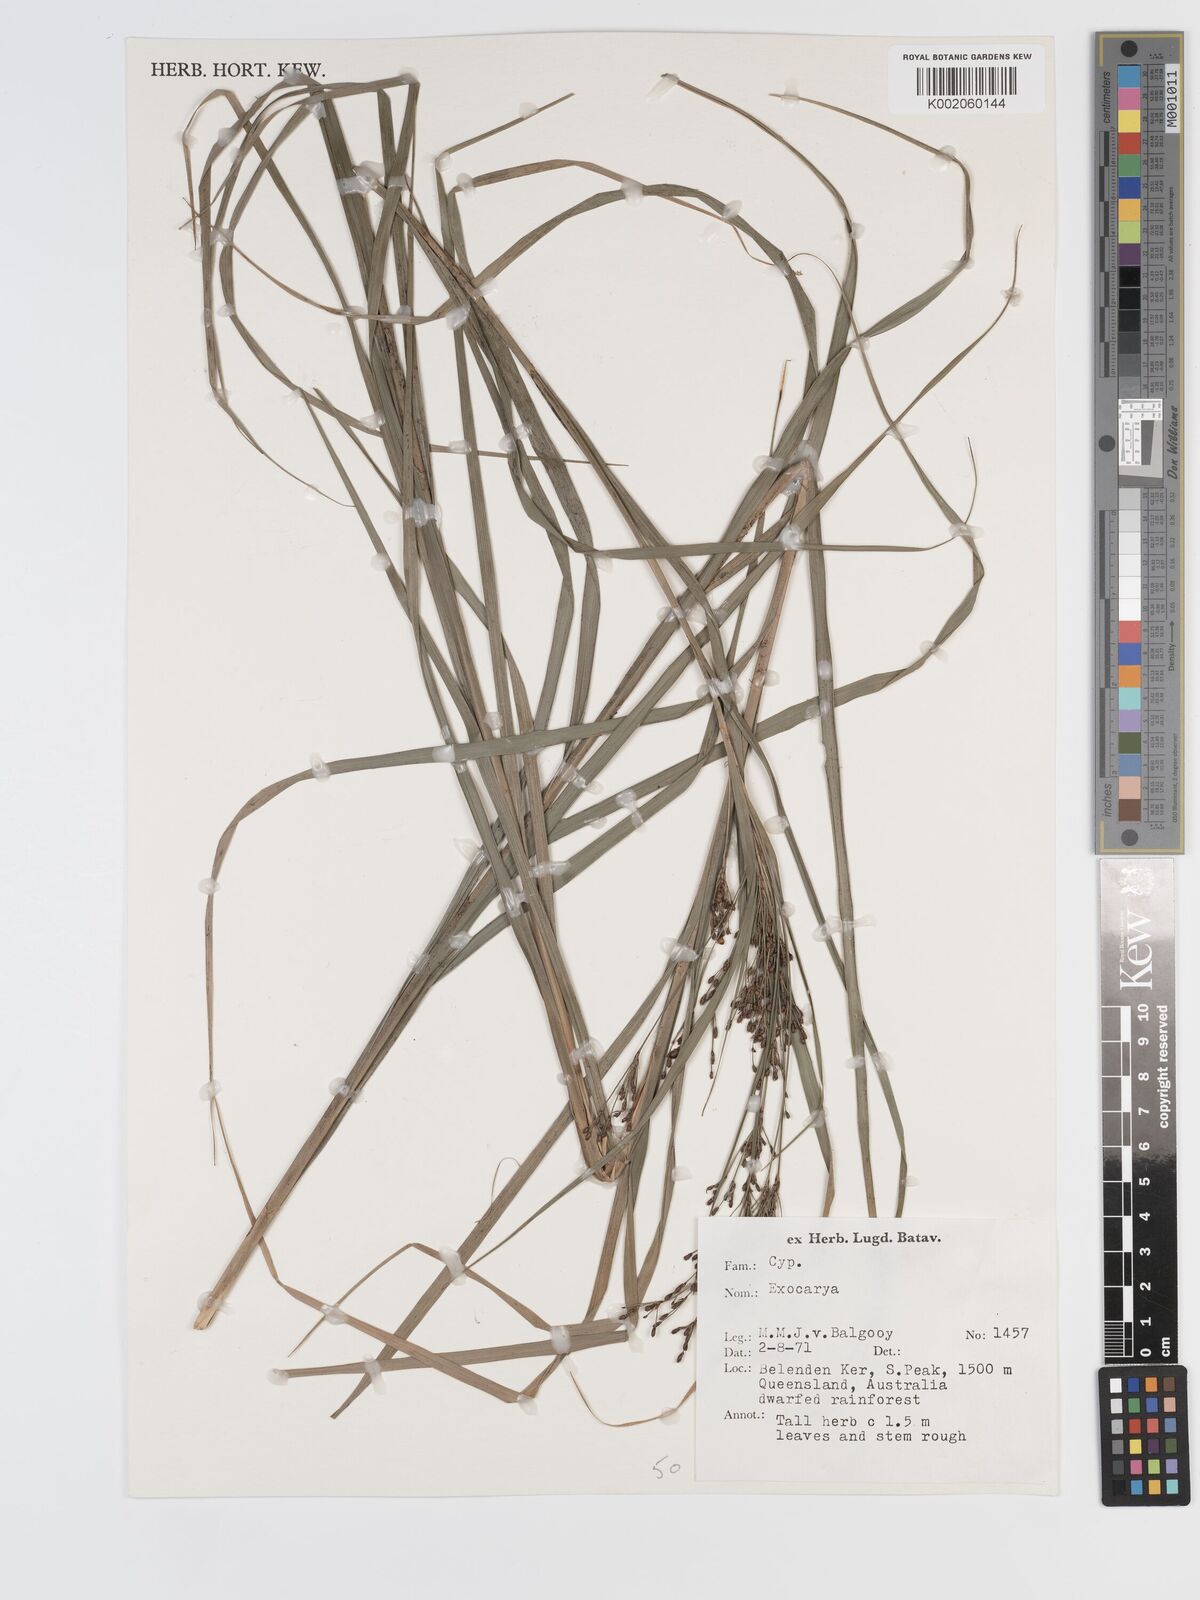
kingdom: Plantae
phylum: Tracheophyta
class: Liliopsida
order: Poales
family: Cyperaceae
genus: Exocarya
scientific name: Exocarya sclerioides
